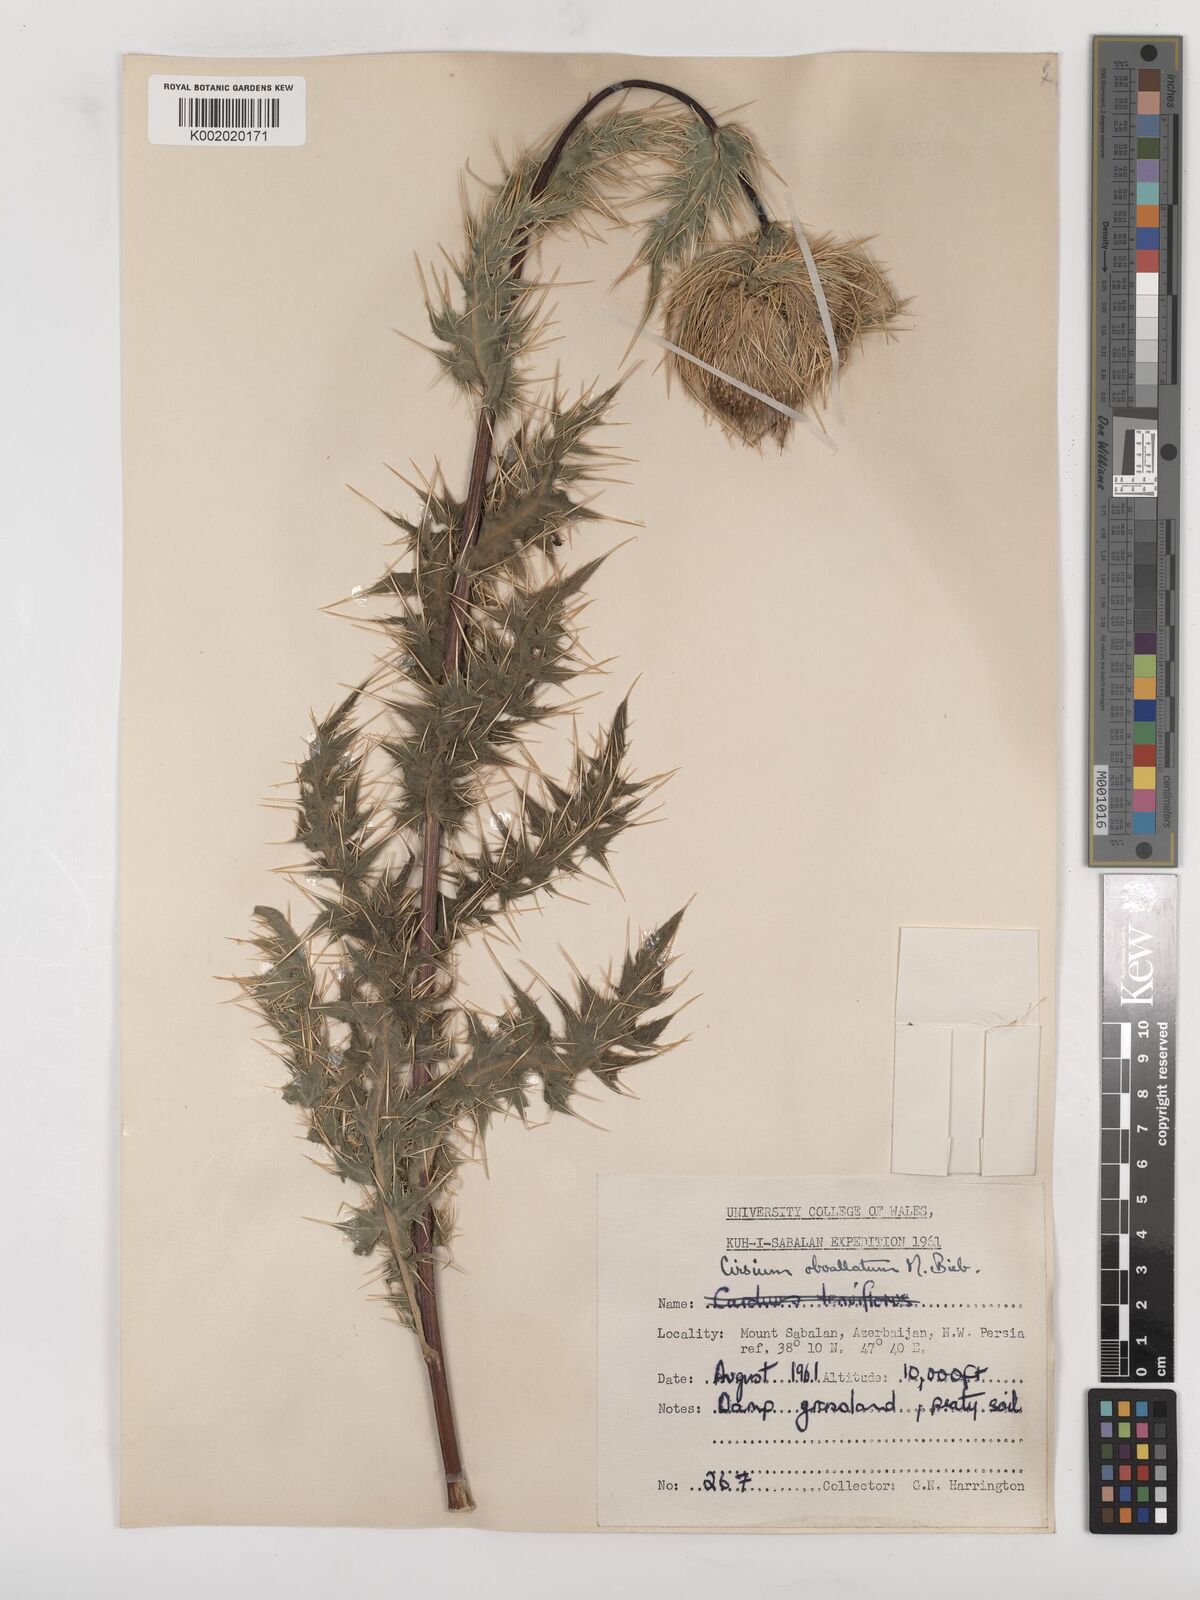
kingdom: Plantae
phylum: Tracheophyta
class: Magnoliopsida
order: Asterales
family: Asteraceae
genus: Cirsium
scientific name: Cirsium obvallatum
